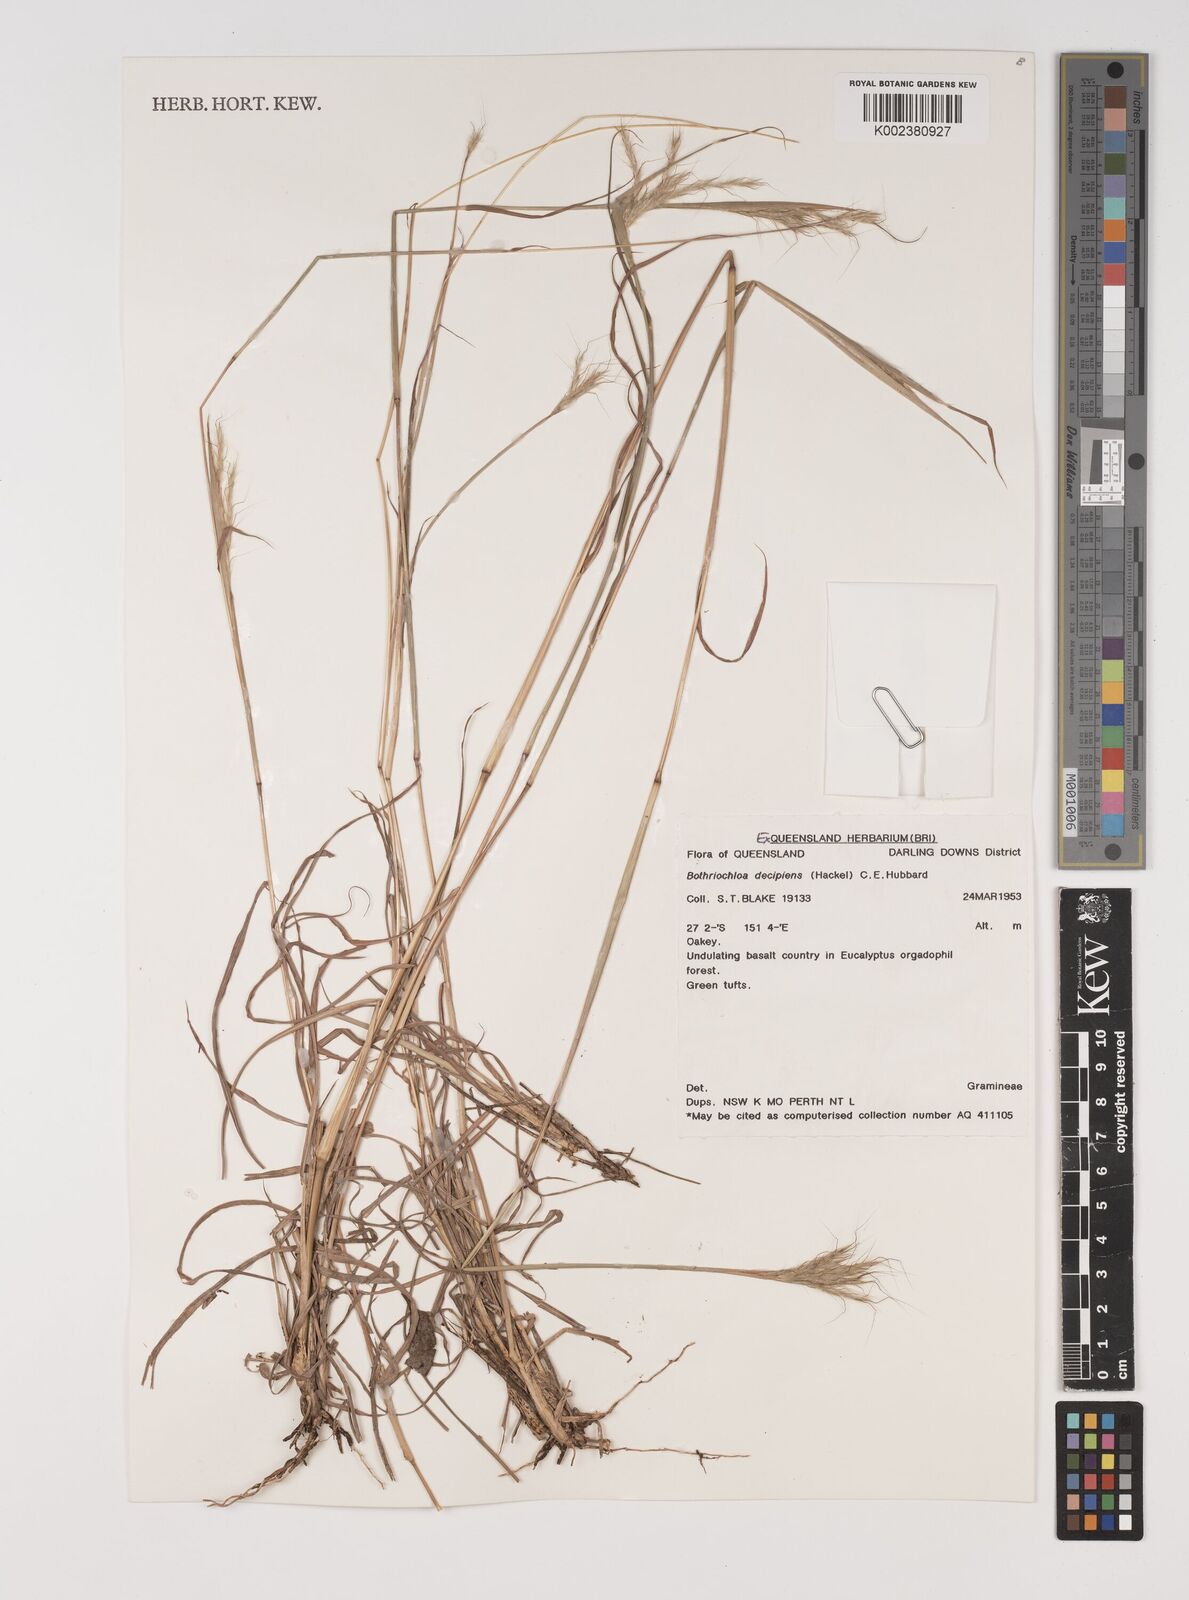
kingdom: Plantae
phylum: Tracheophyta
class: Liliopsida
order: Poales
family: Poaceae
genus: Bothriochloa
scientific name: Bothriochloa decipiens
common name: Pitted-bluegrass
